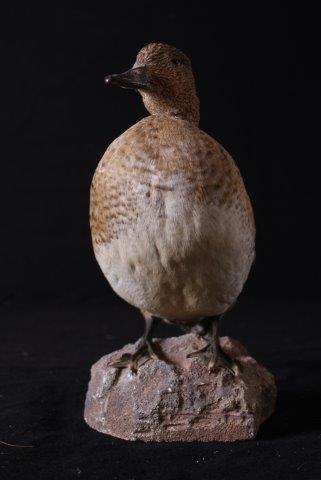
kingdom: Animalia
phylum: Chordata
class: Aves
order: Anseriformes
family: Anatidae
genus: Mareca
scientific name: Mareca penelope
